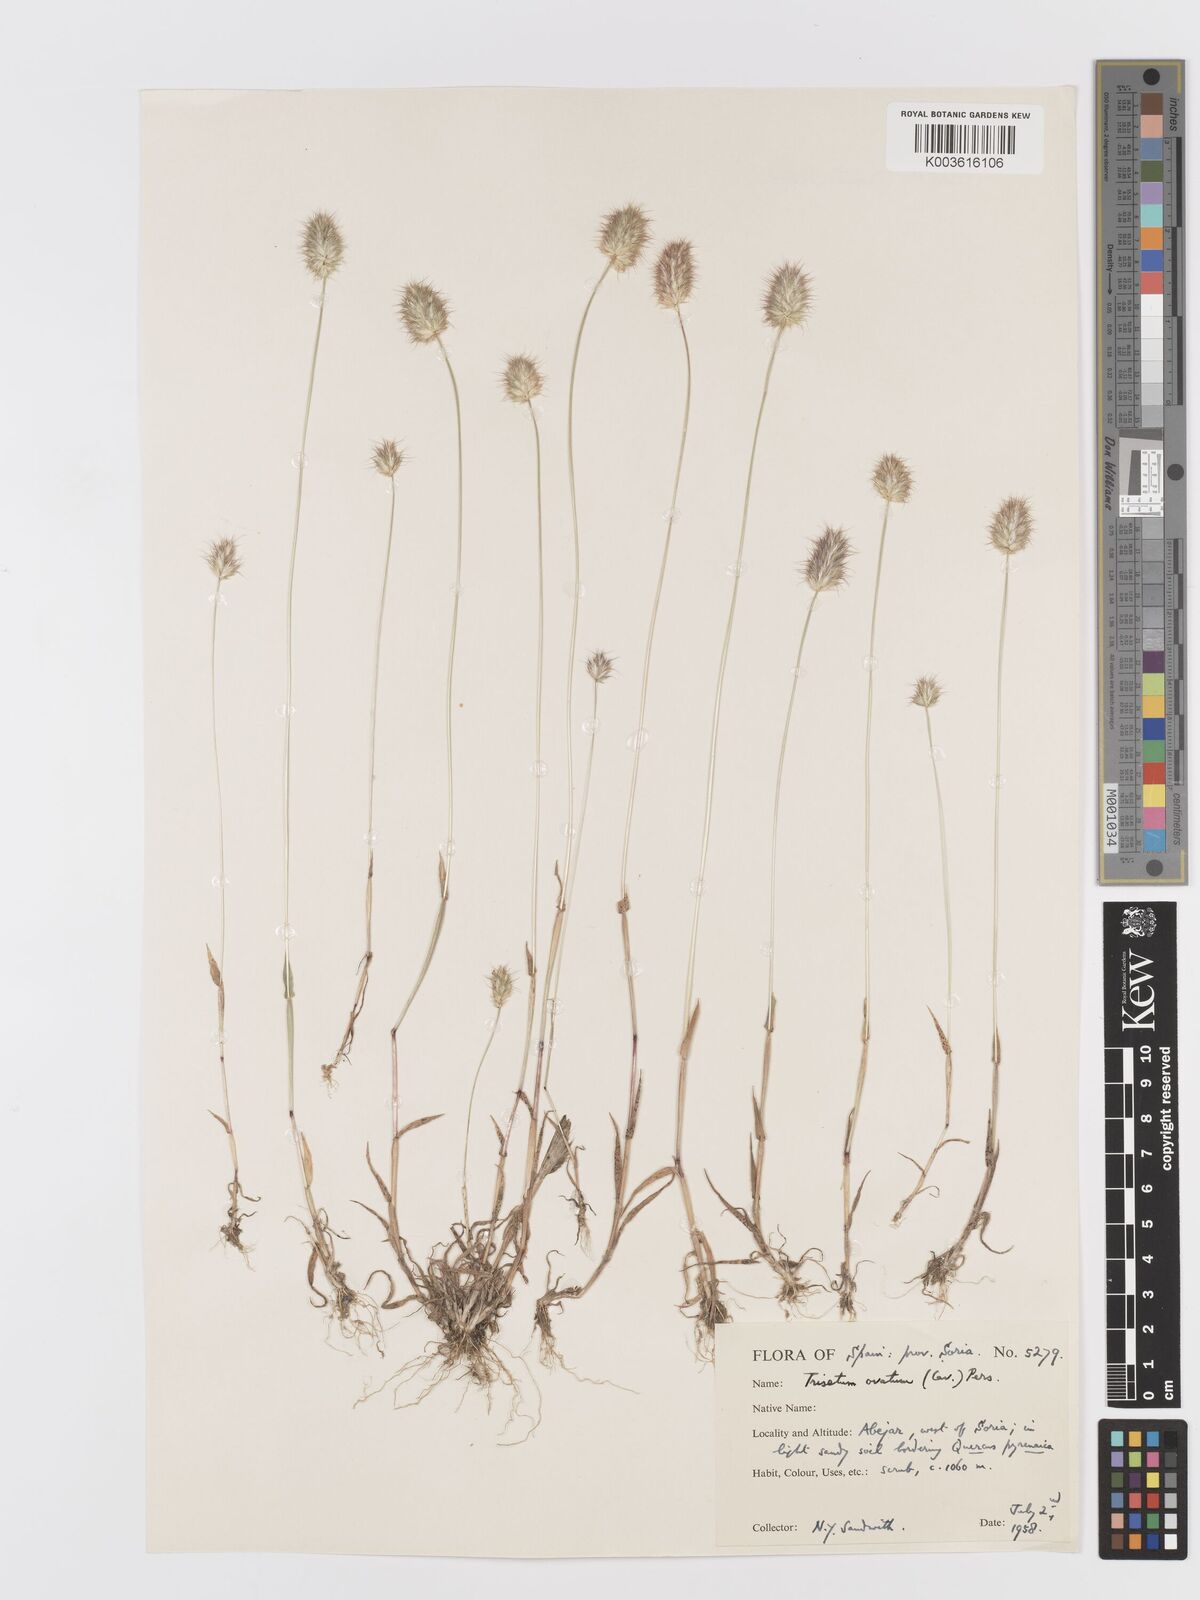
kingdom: Plantae
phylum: Tracheophyta
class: Liliopsida
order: Poales
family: Poaceae
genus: Trisetaria
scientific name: Trisetaria ovata
